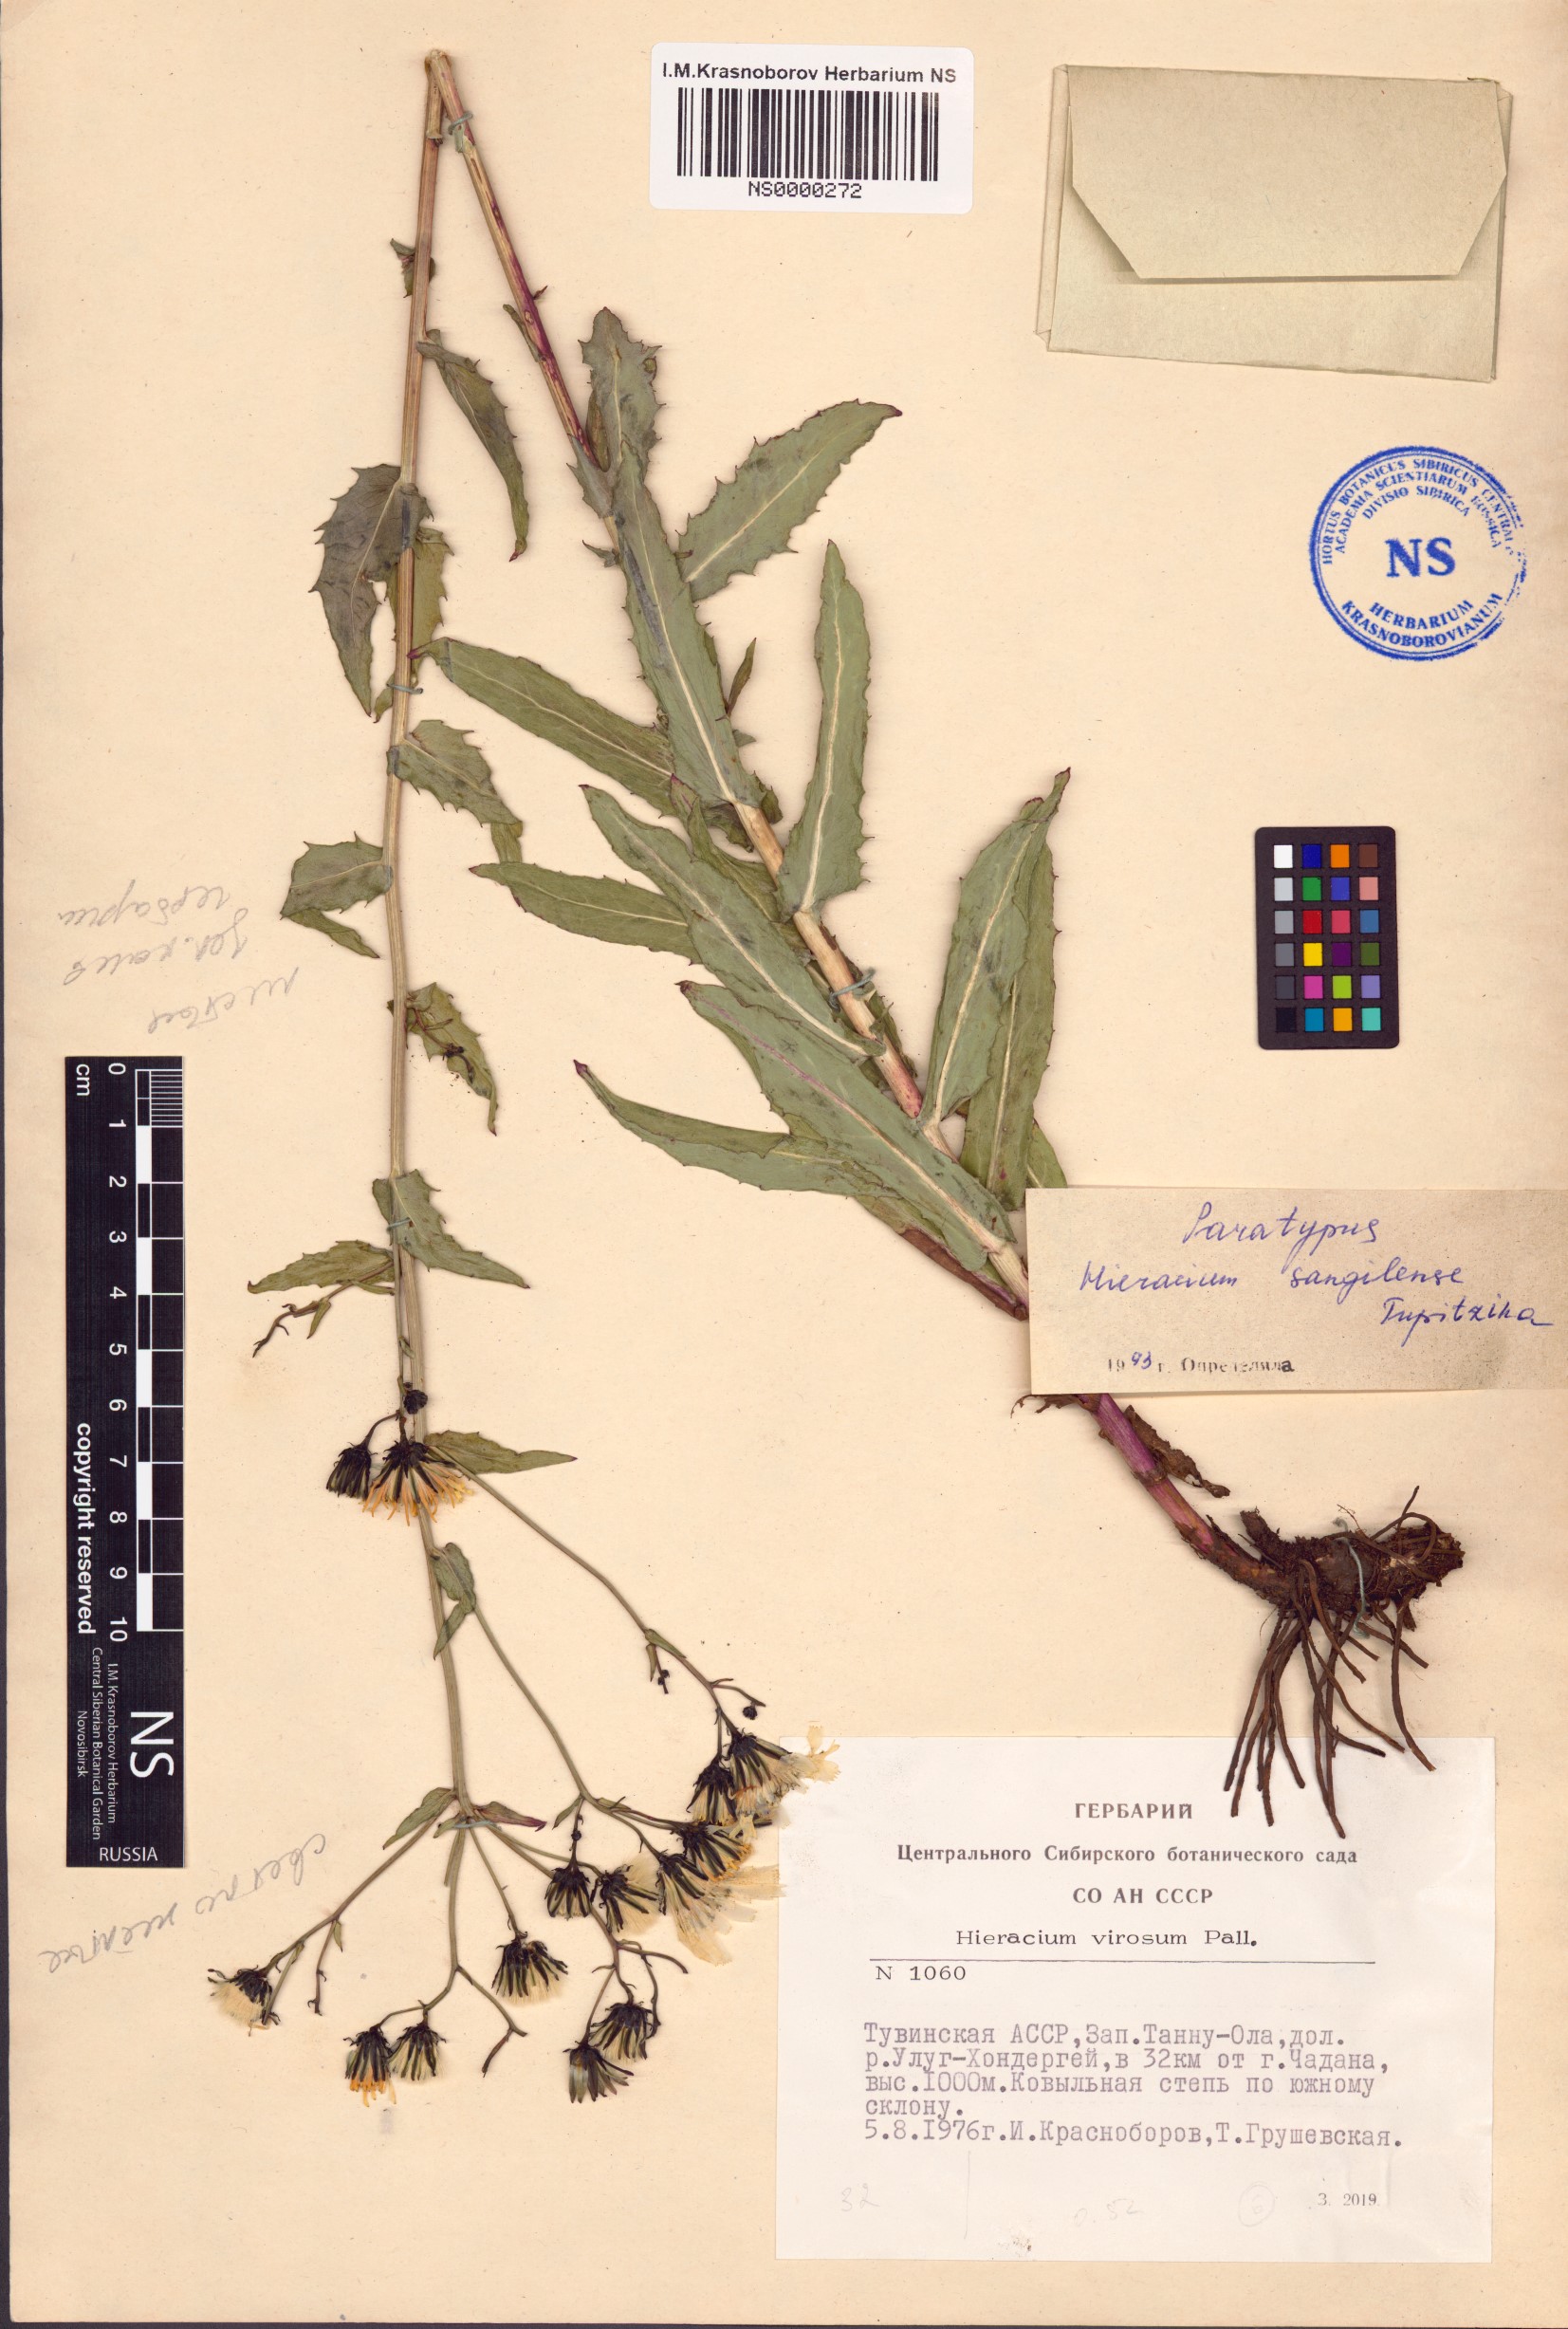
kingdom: Plantae
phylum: Tracheophyta
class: Magnoliopsida
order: Asterales
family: Asteraceae
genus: Hieracium
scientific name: Hieracium sangilense
